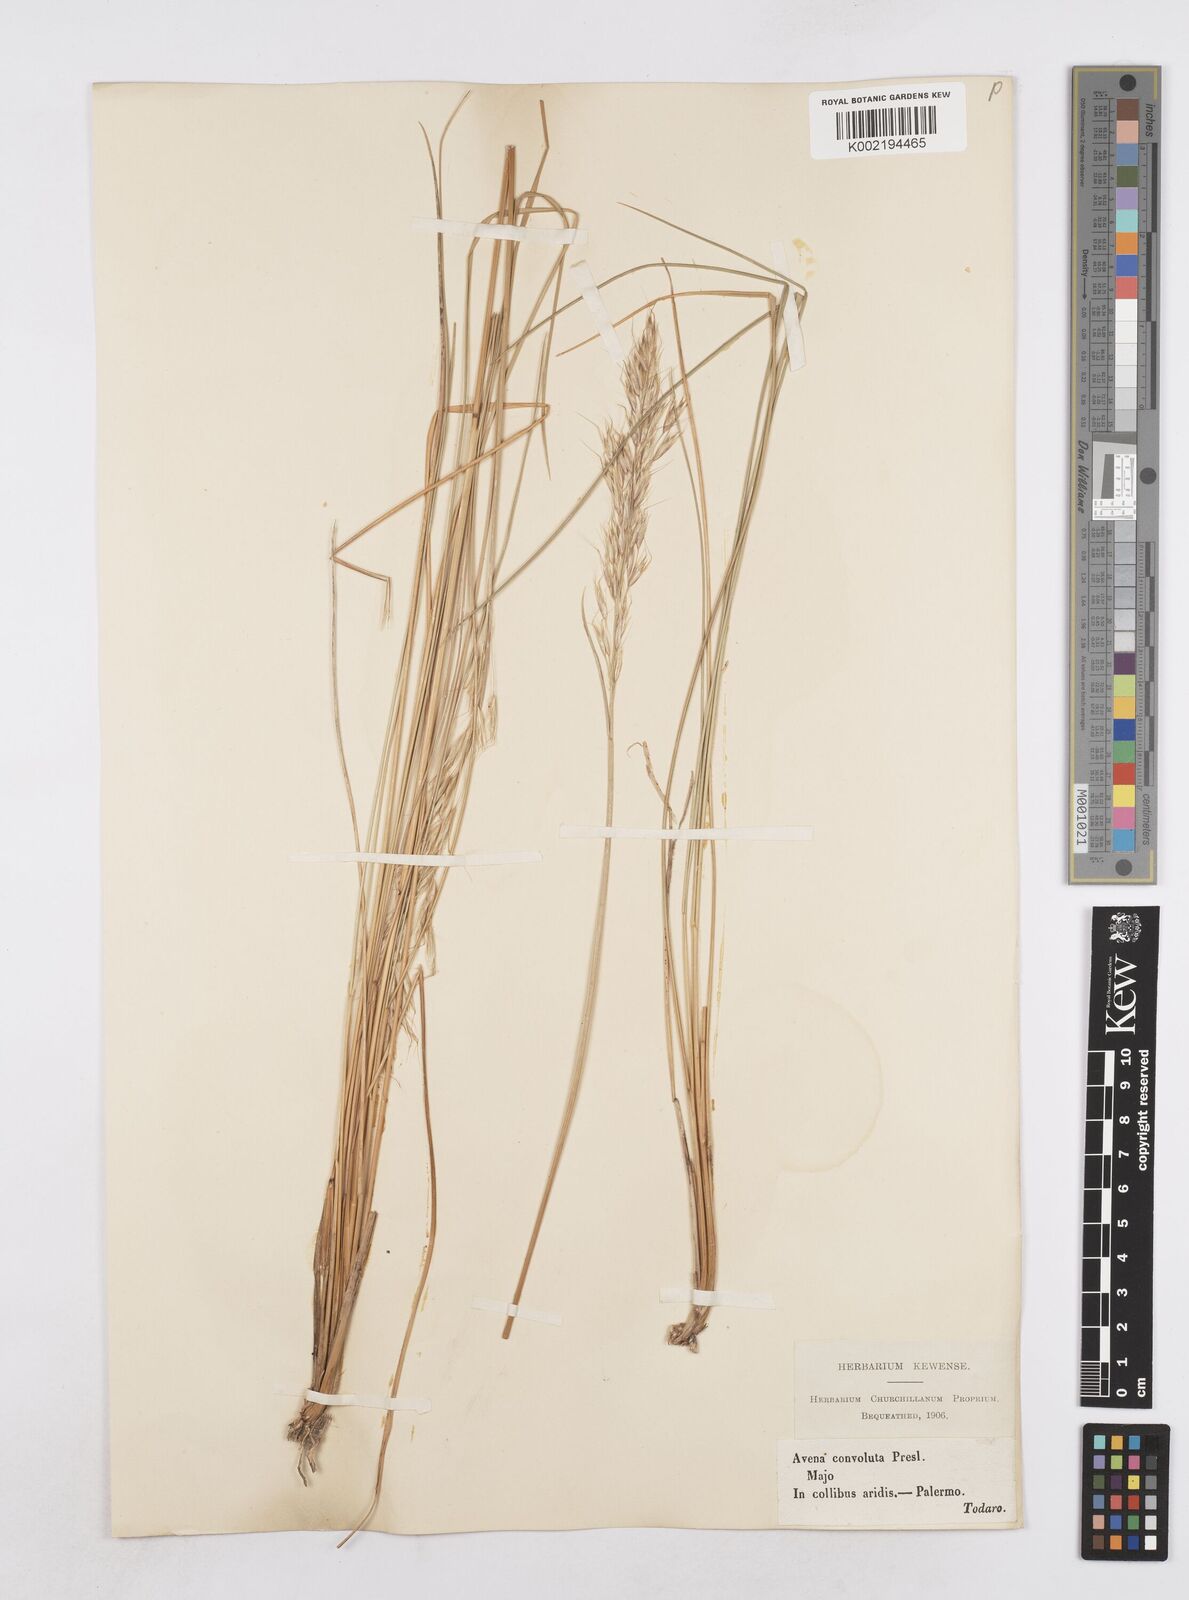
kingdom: Plantae
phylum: Tracheophyta
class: Liliopsida
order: Poales
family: Poaceae
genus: Helictotrichon
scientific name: Helictotrichon convolutum
